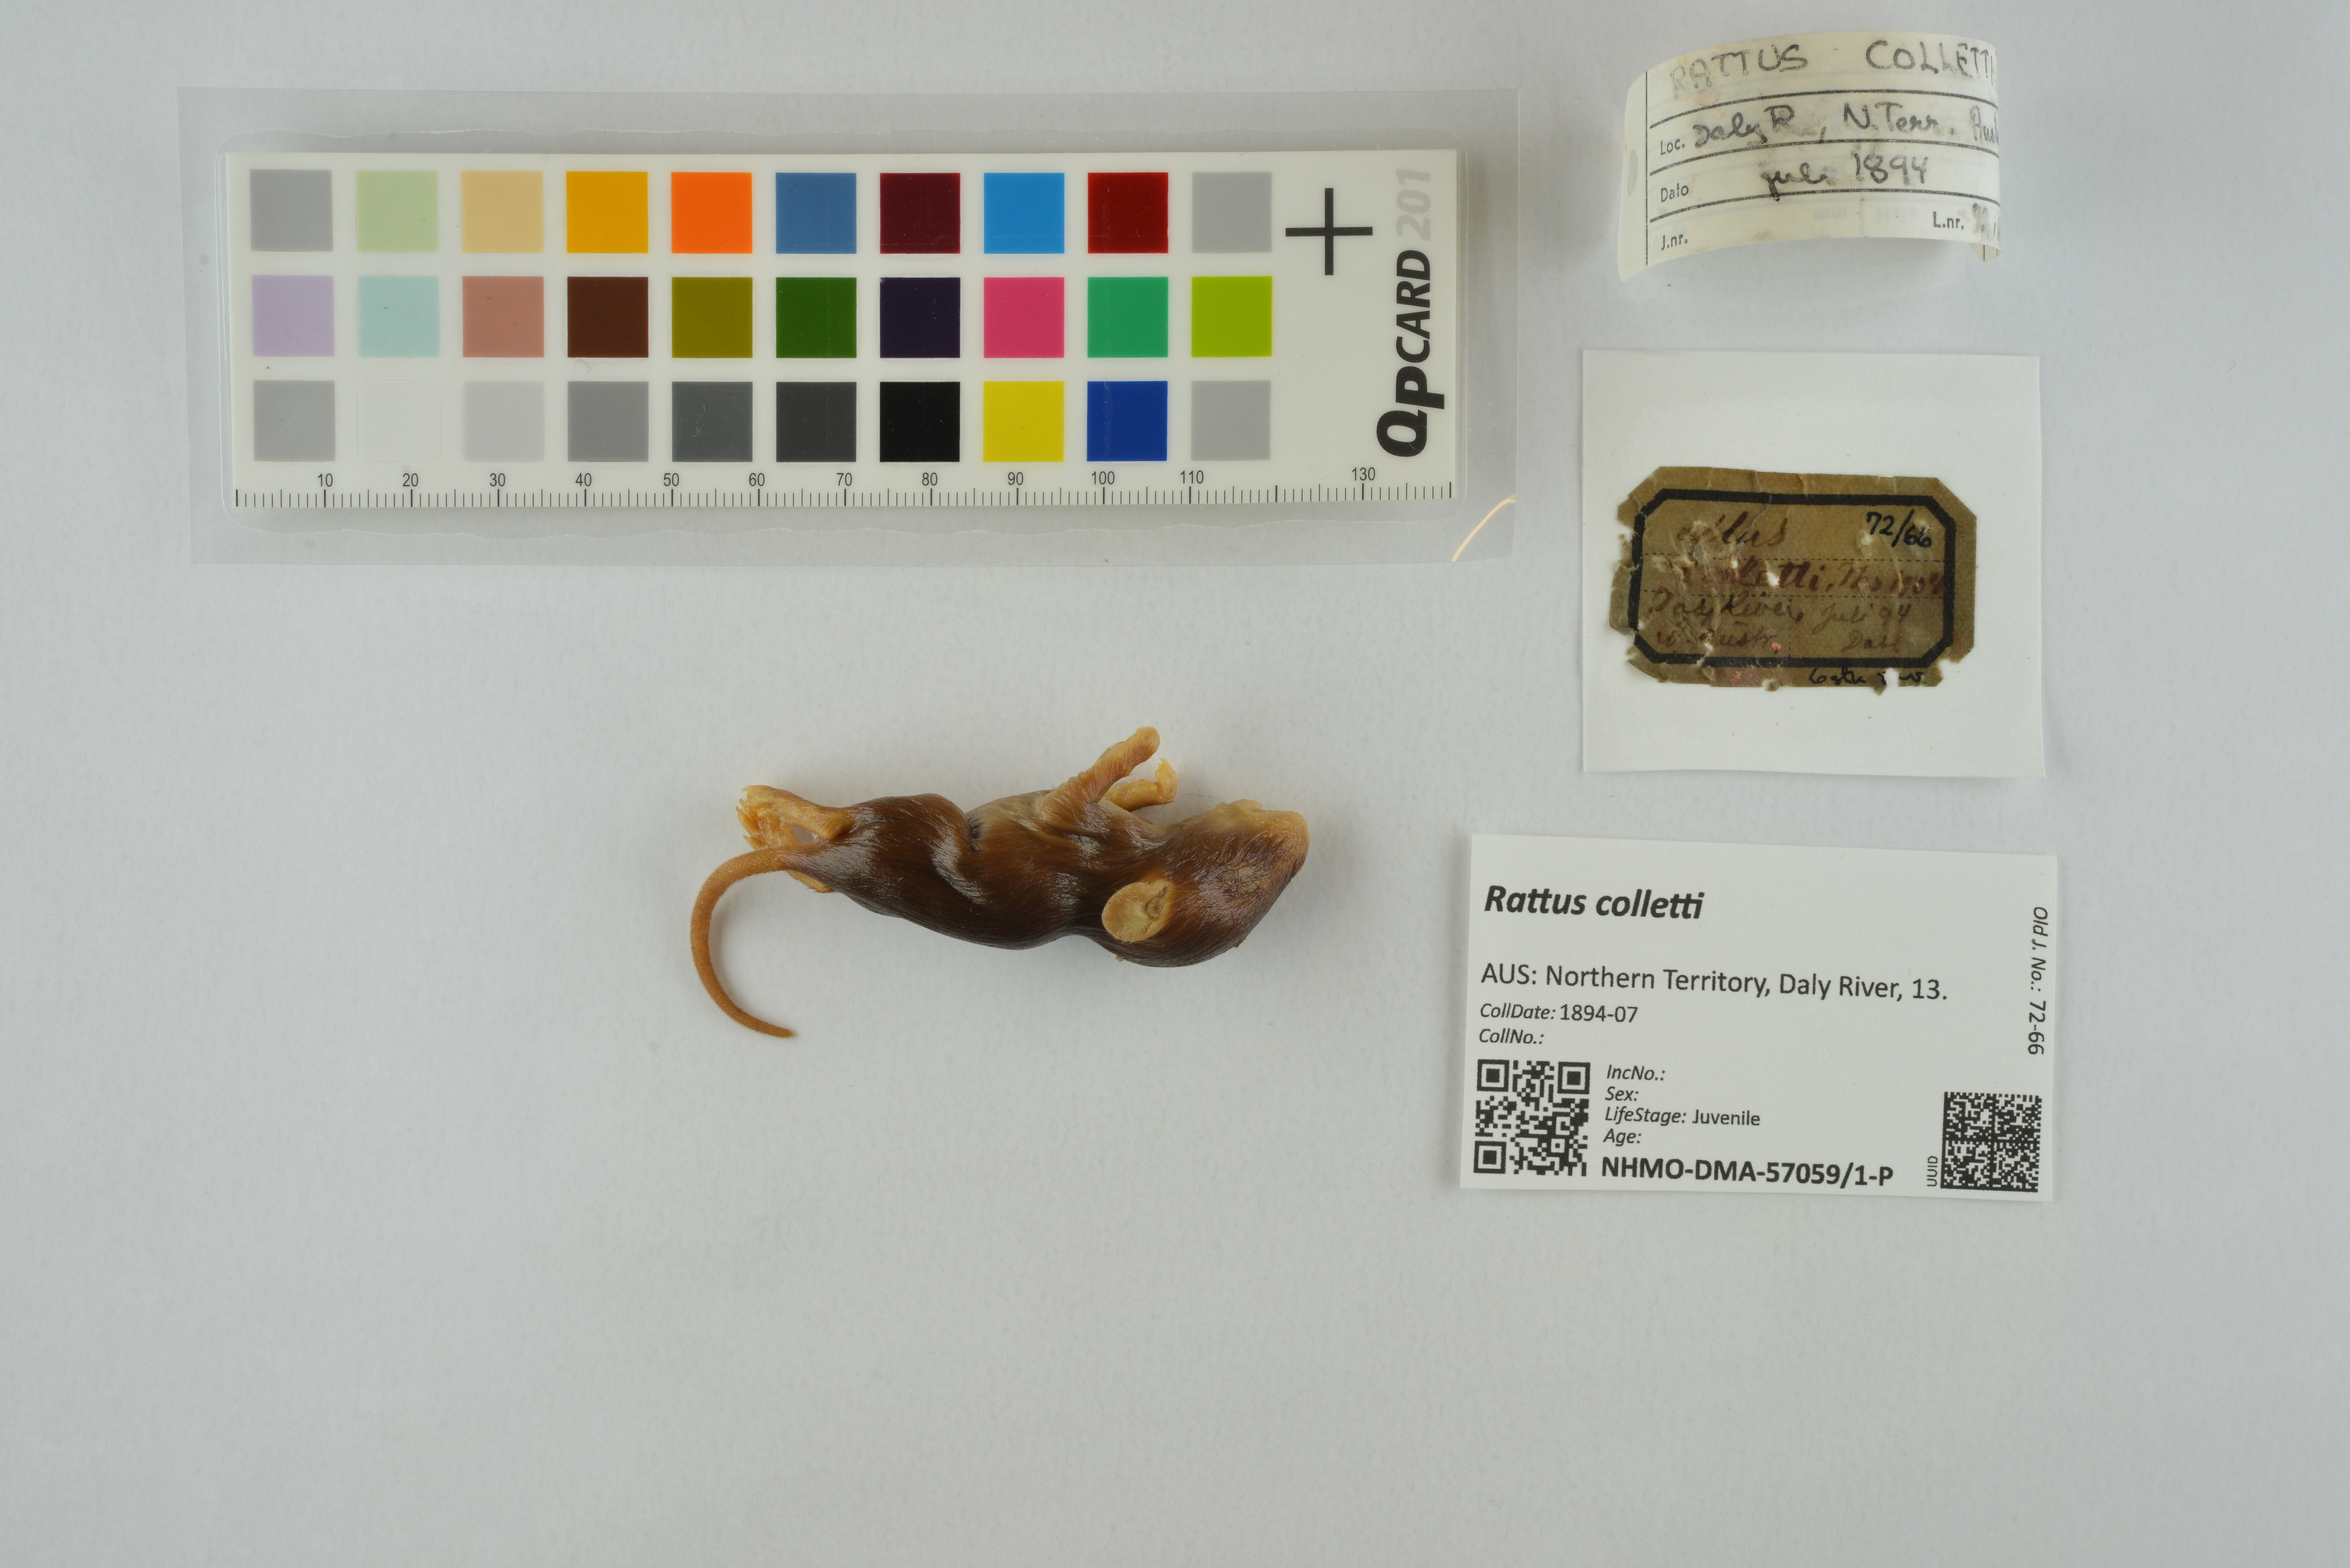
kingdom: Animalia
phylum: Chordata
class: Mammalia
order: Rodentia
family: Muridae
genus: Rattus
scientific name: Rattus colletti
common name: Australian dusky rat
